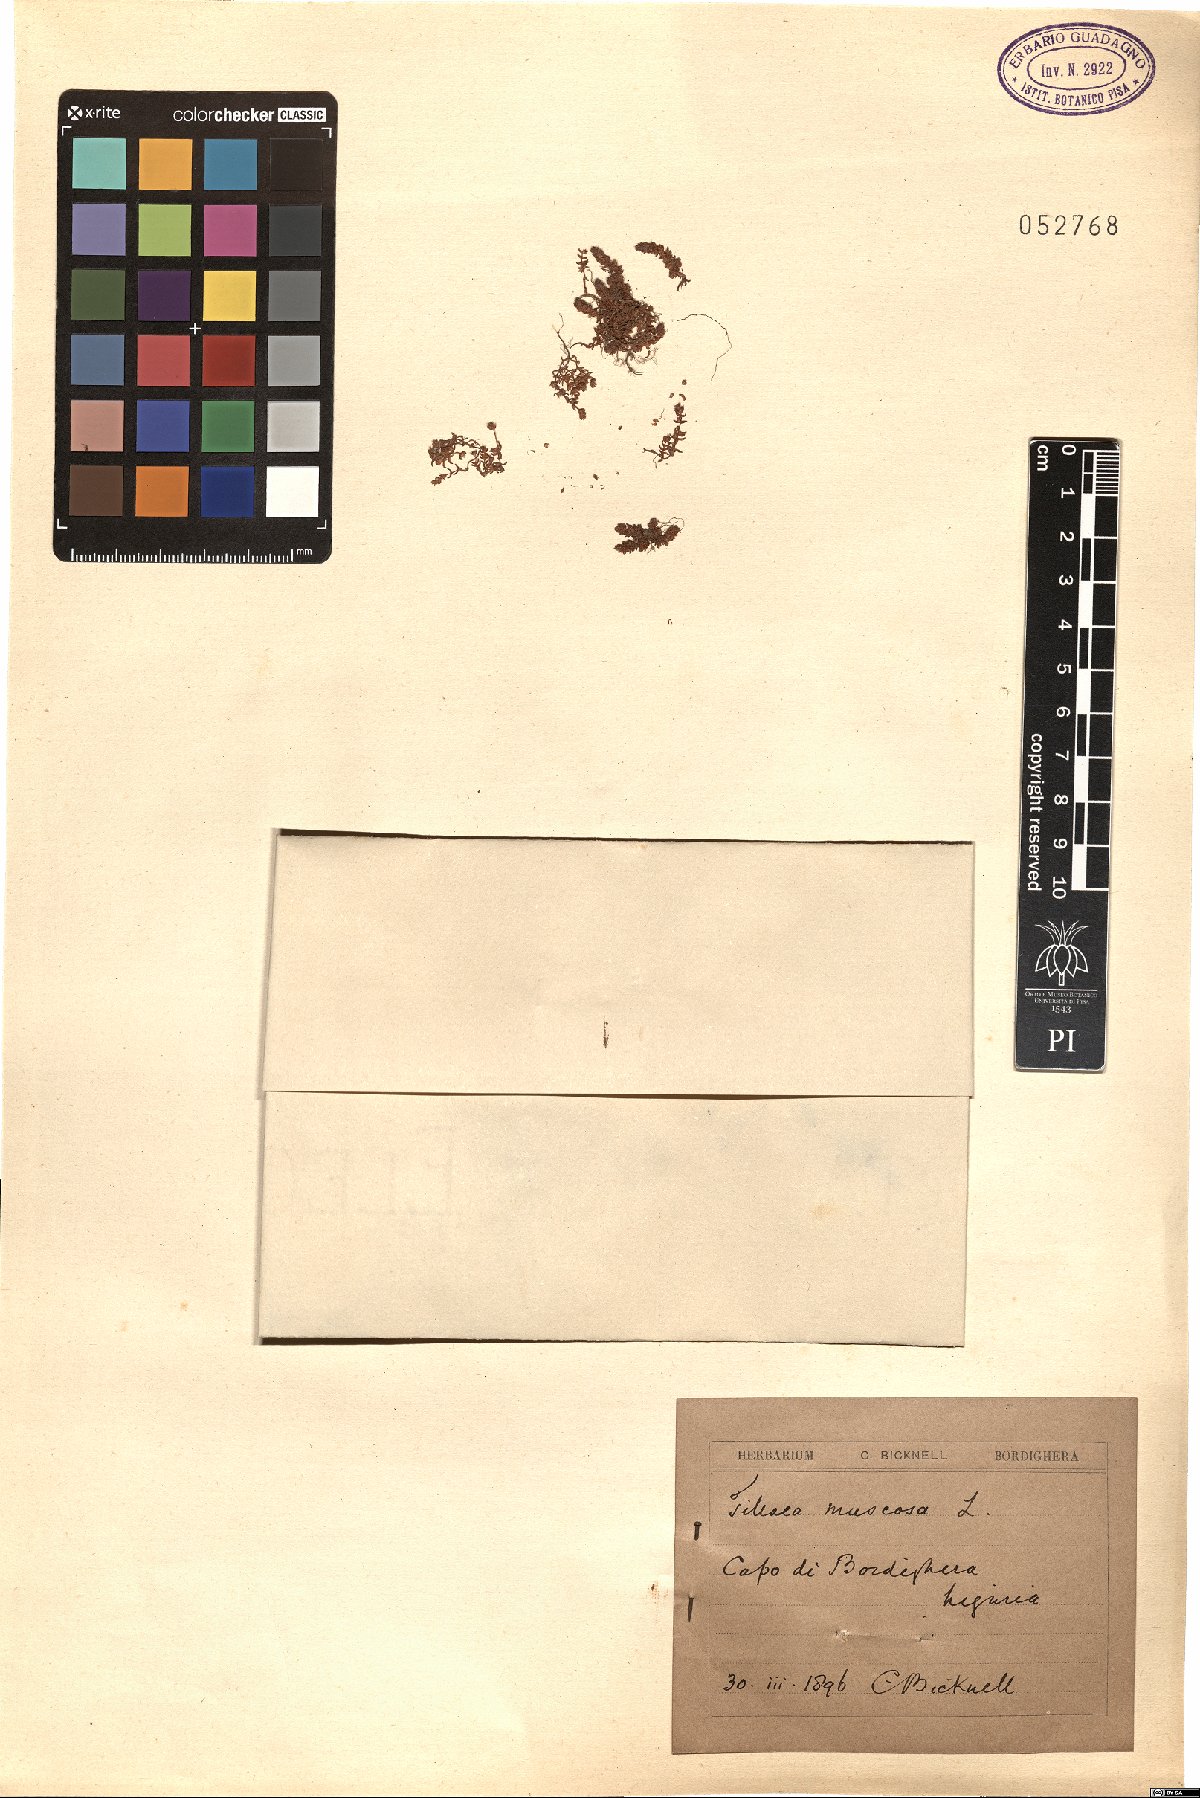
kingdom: Plantae
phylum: Tracheophyta
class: Magnoliopsida
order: Saxifragales
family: Crassulaceae
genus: Crassula
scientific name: Crassula tillaea
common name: Mossy stonecrop
